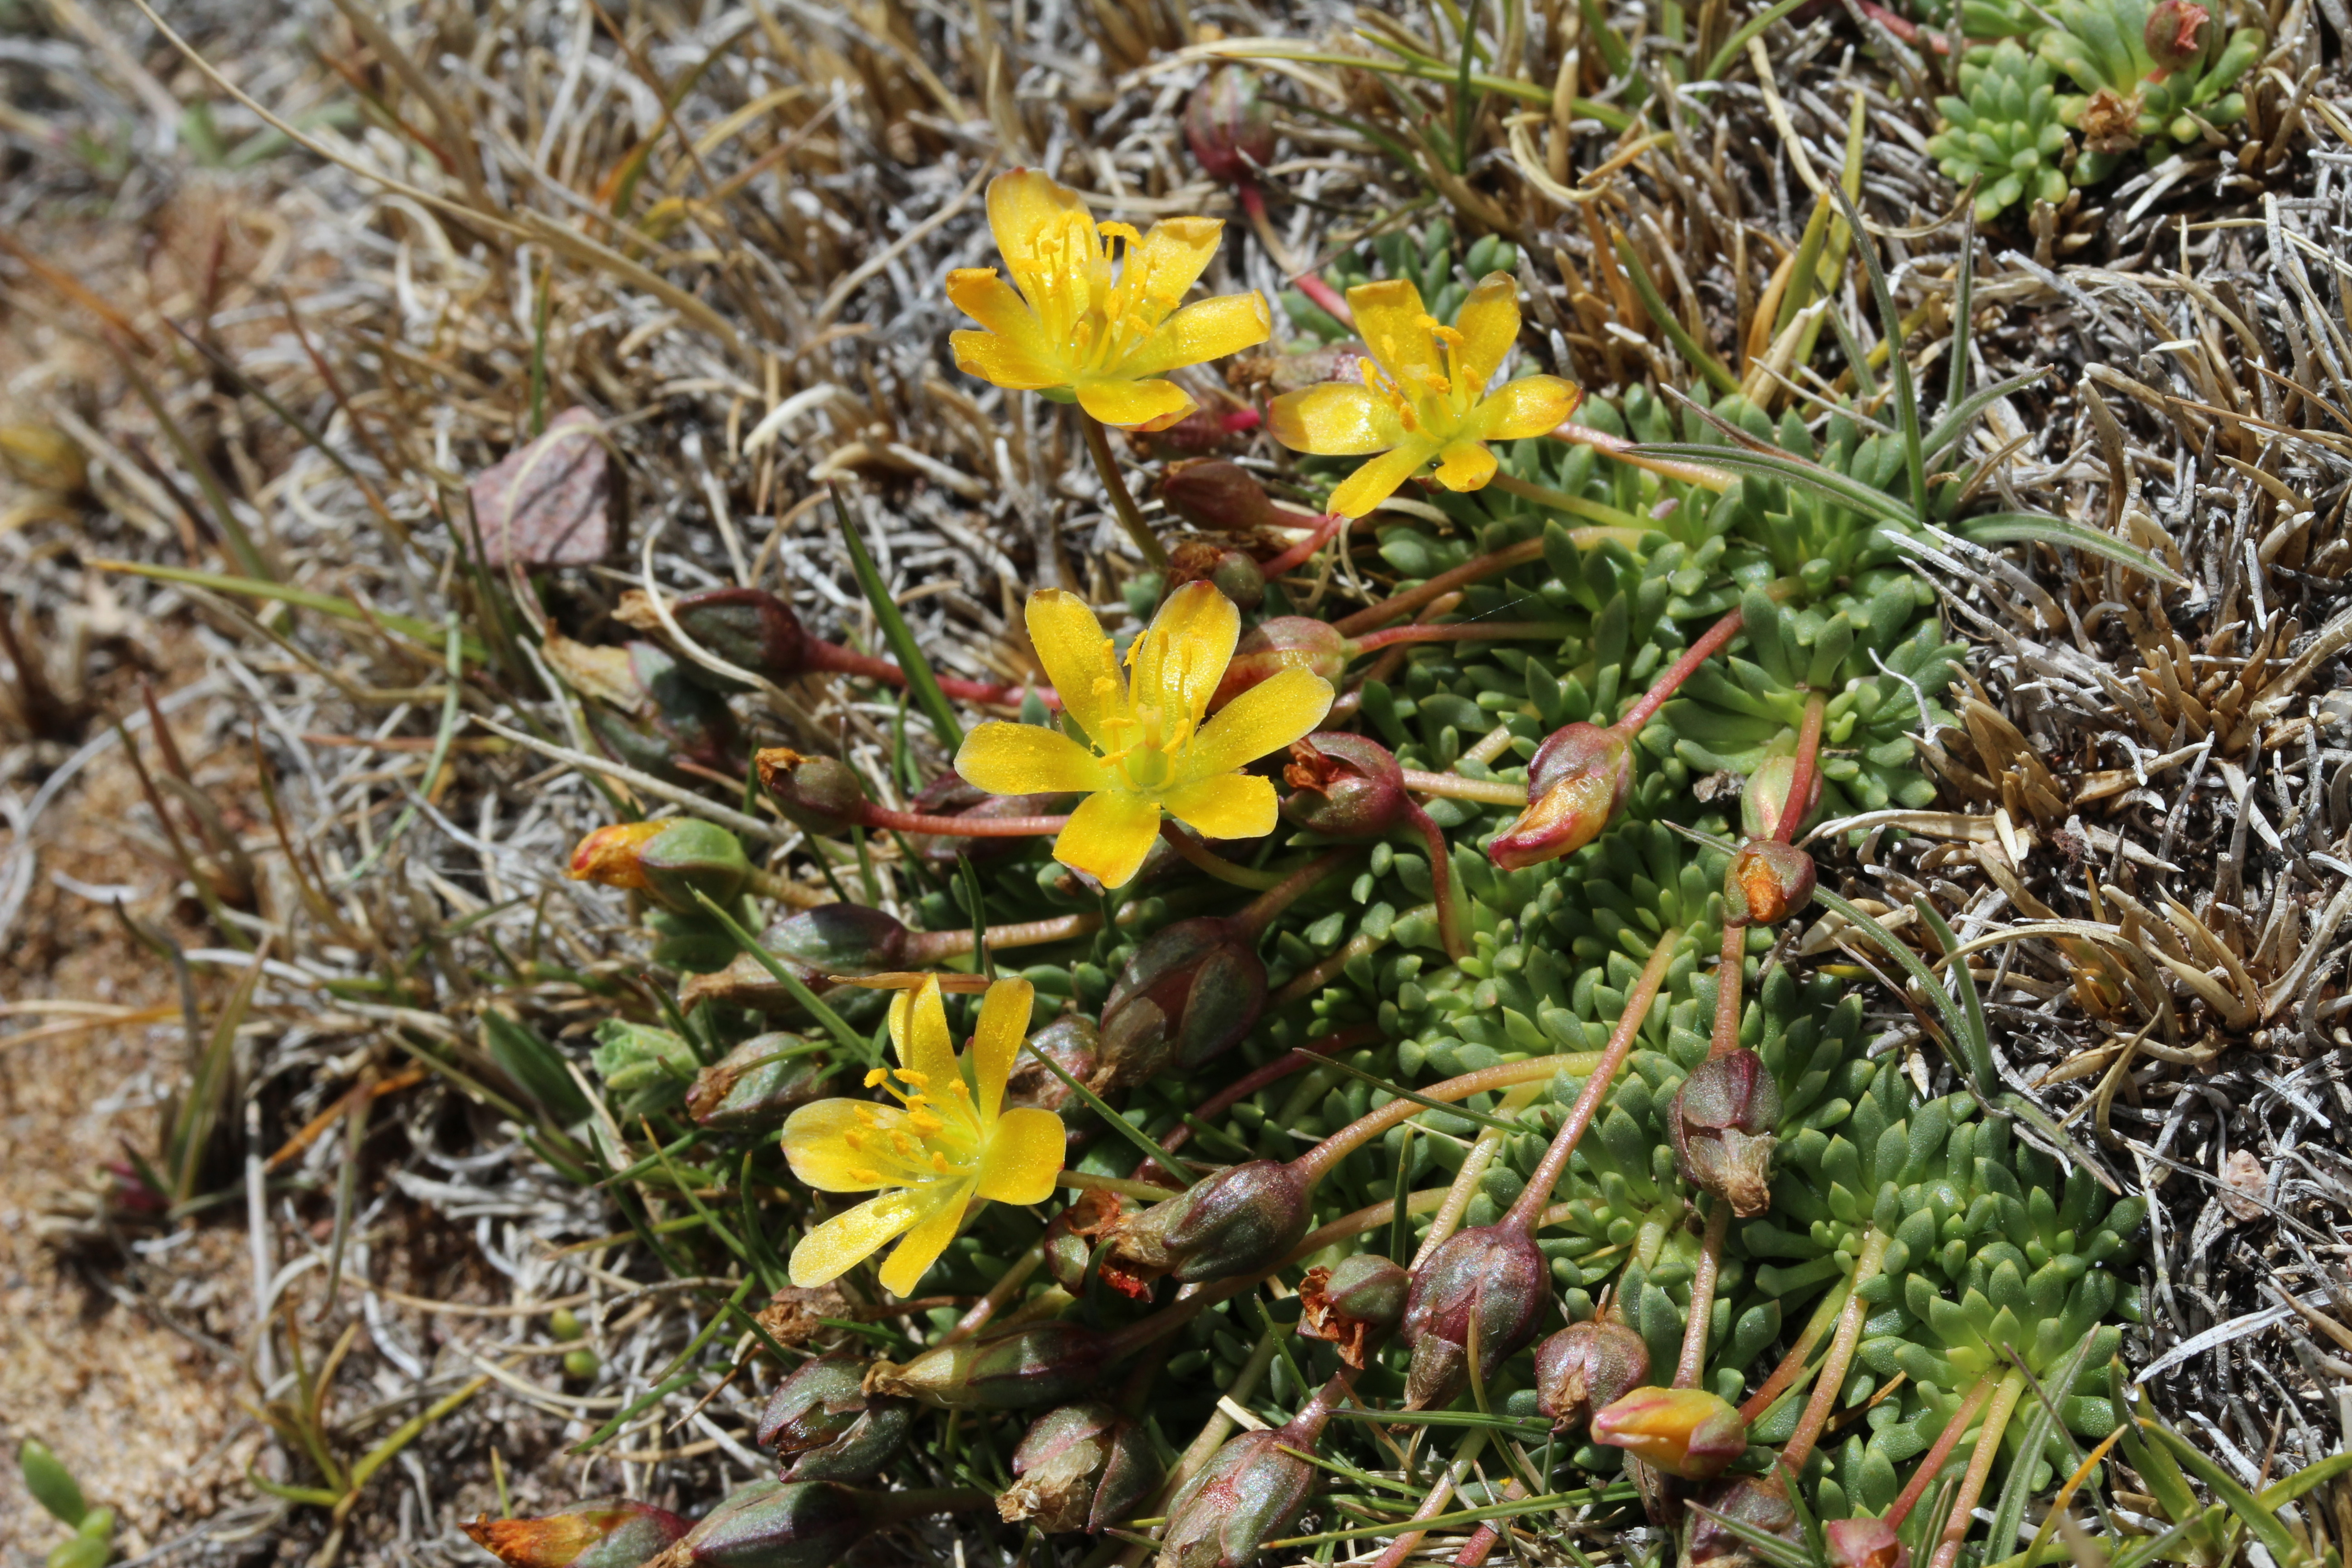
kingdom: Plantae
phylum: Tracheophyta
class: Magnoliopsida
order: Caryophyllales
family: Montiaceae
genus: Calandrinia
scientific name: Calandrinia caespitosa
